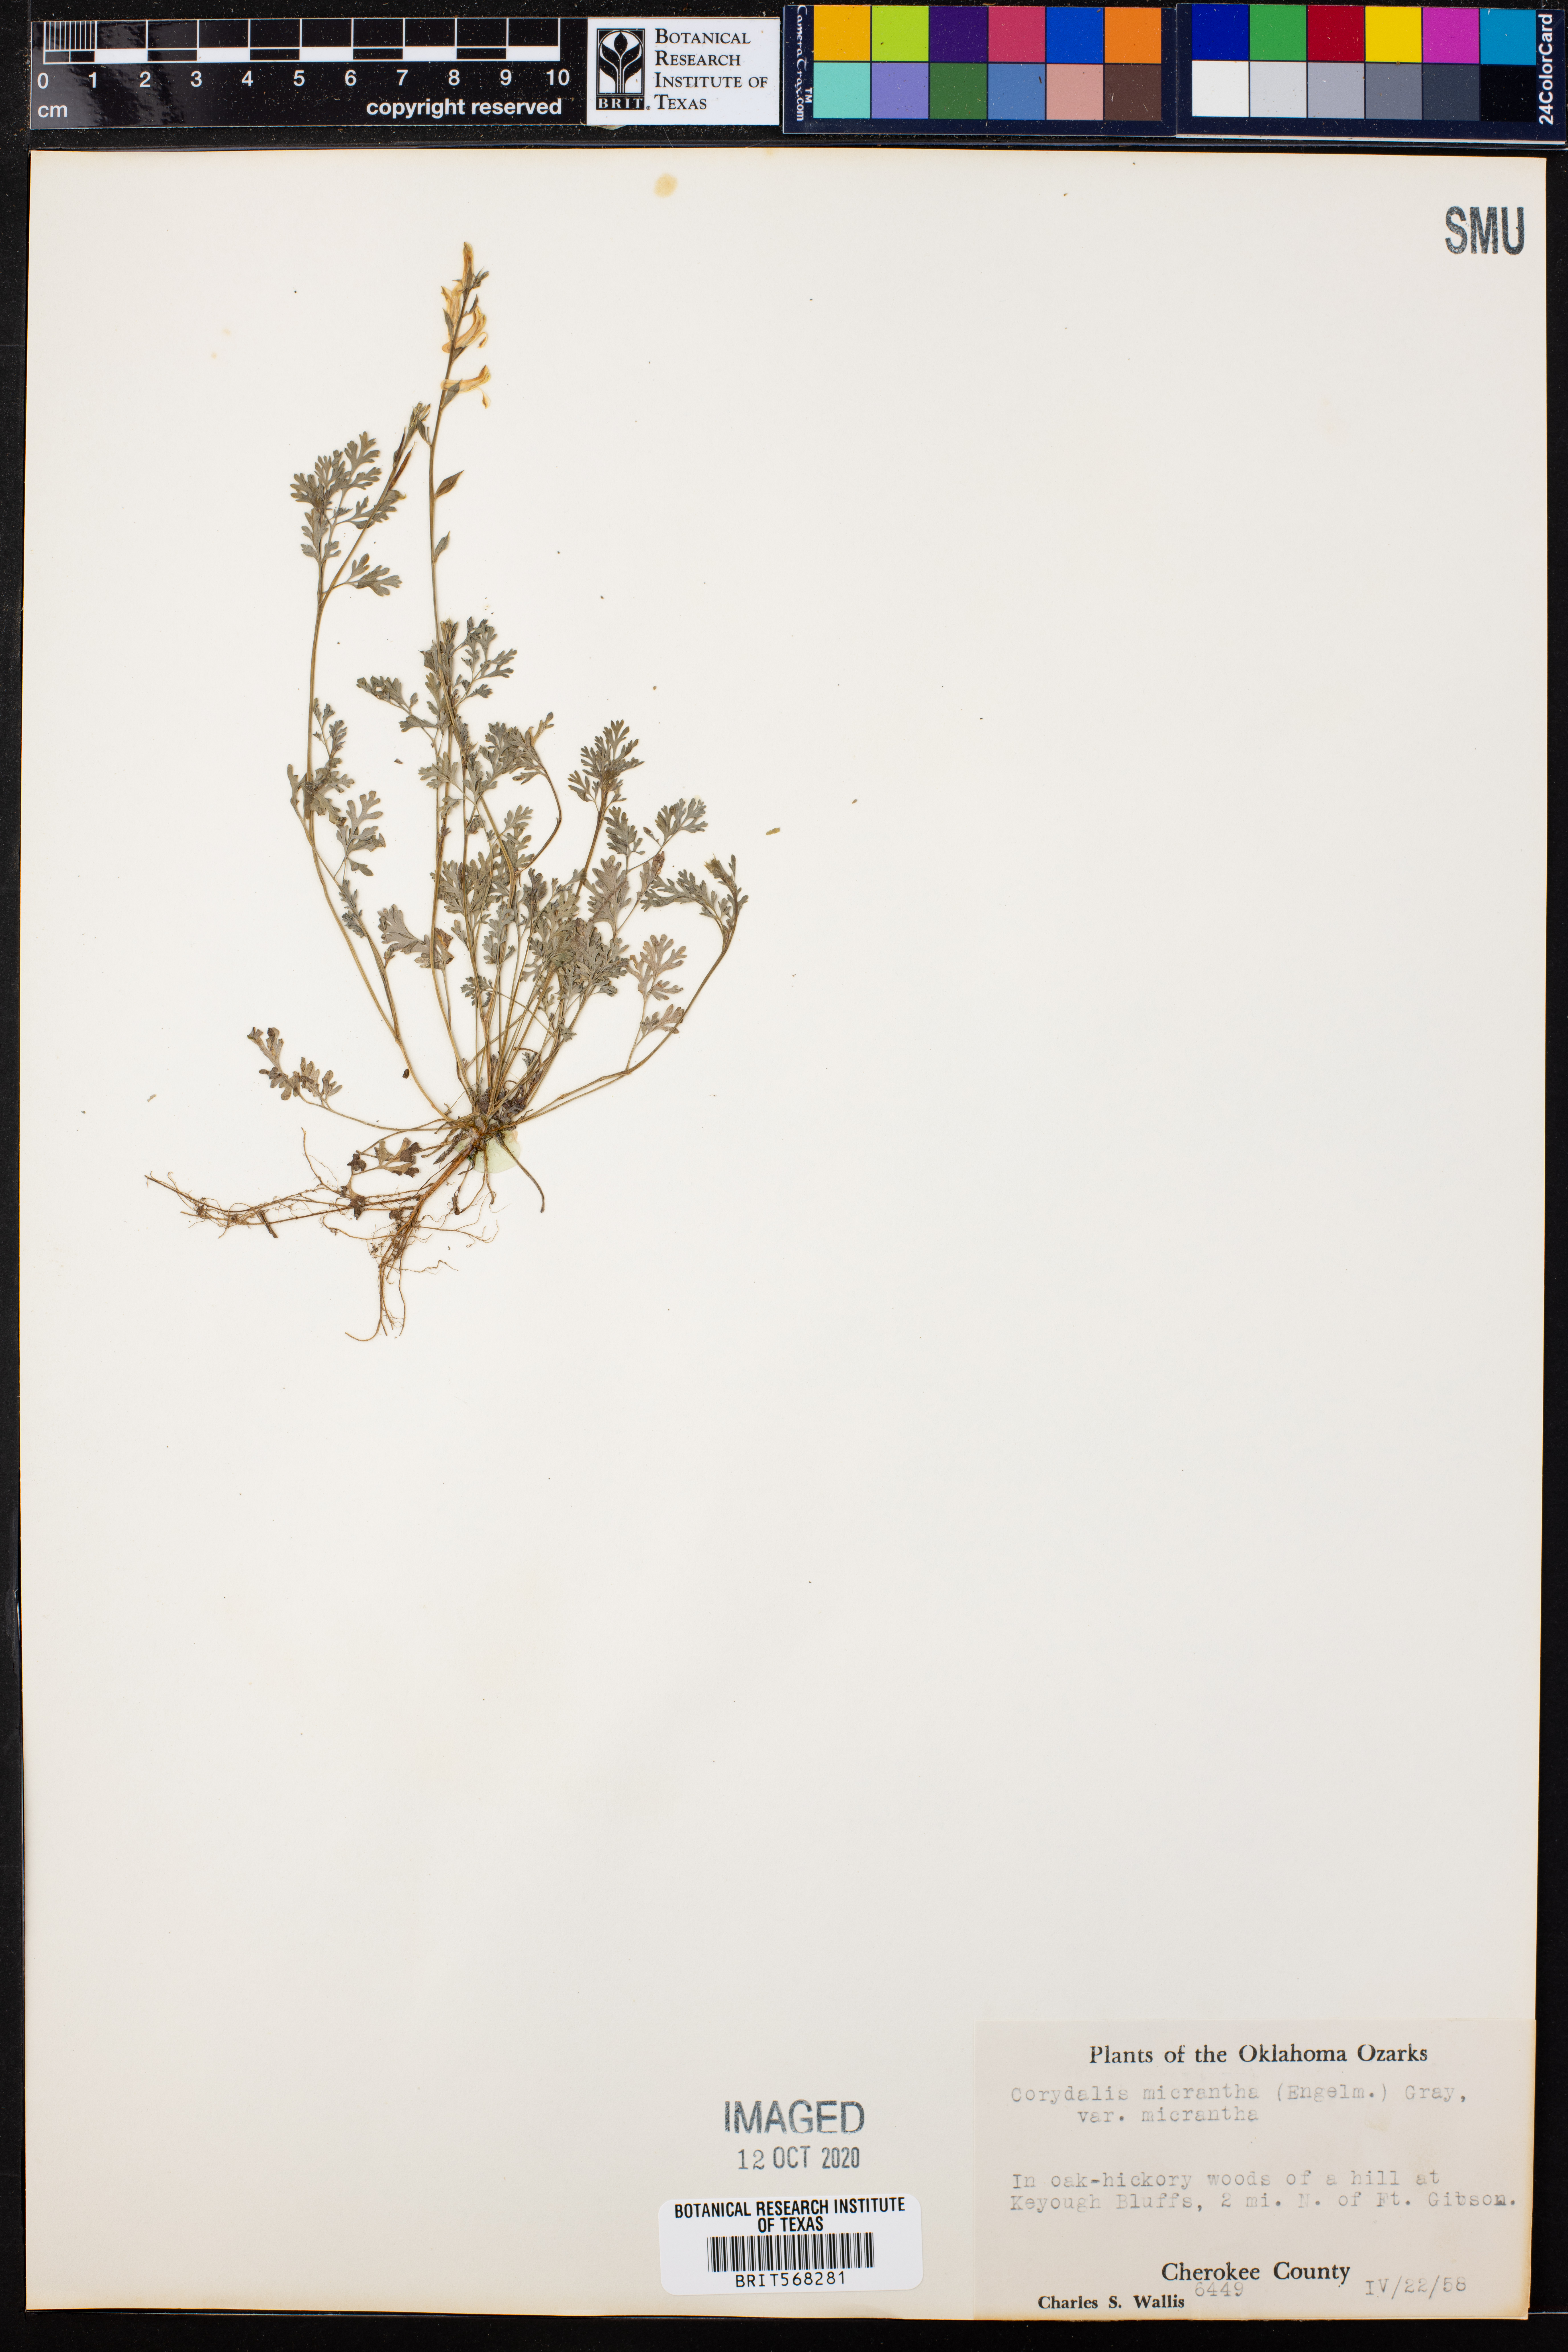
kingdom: Plantae
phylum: Tracheophyta
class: Magnoliopsida
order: Ranunculales
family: Papaveraceae
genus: Corydalis
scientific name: Corydalis micrantha
